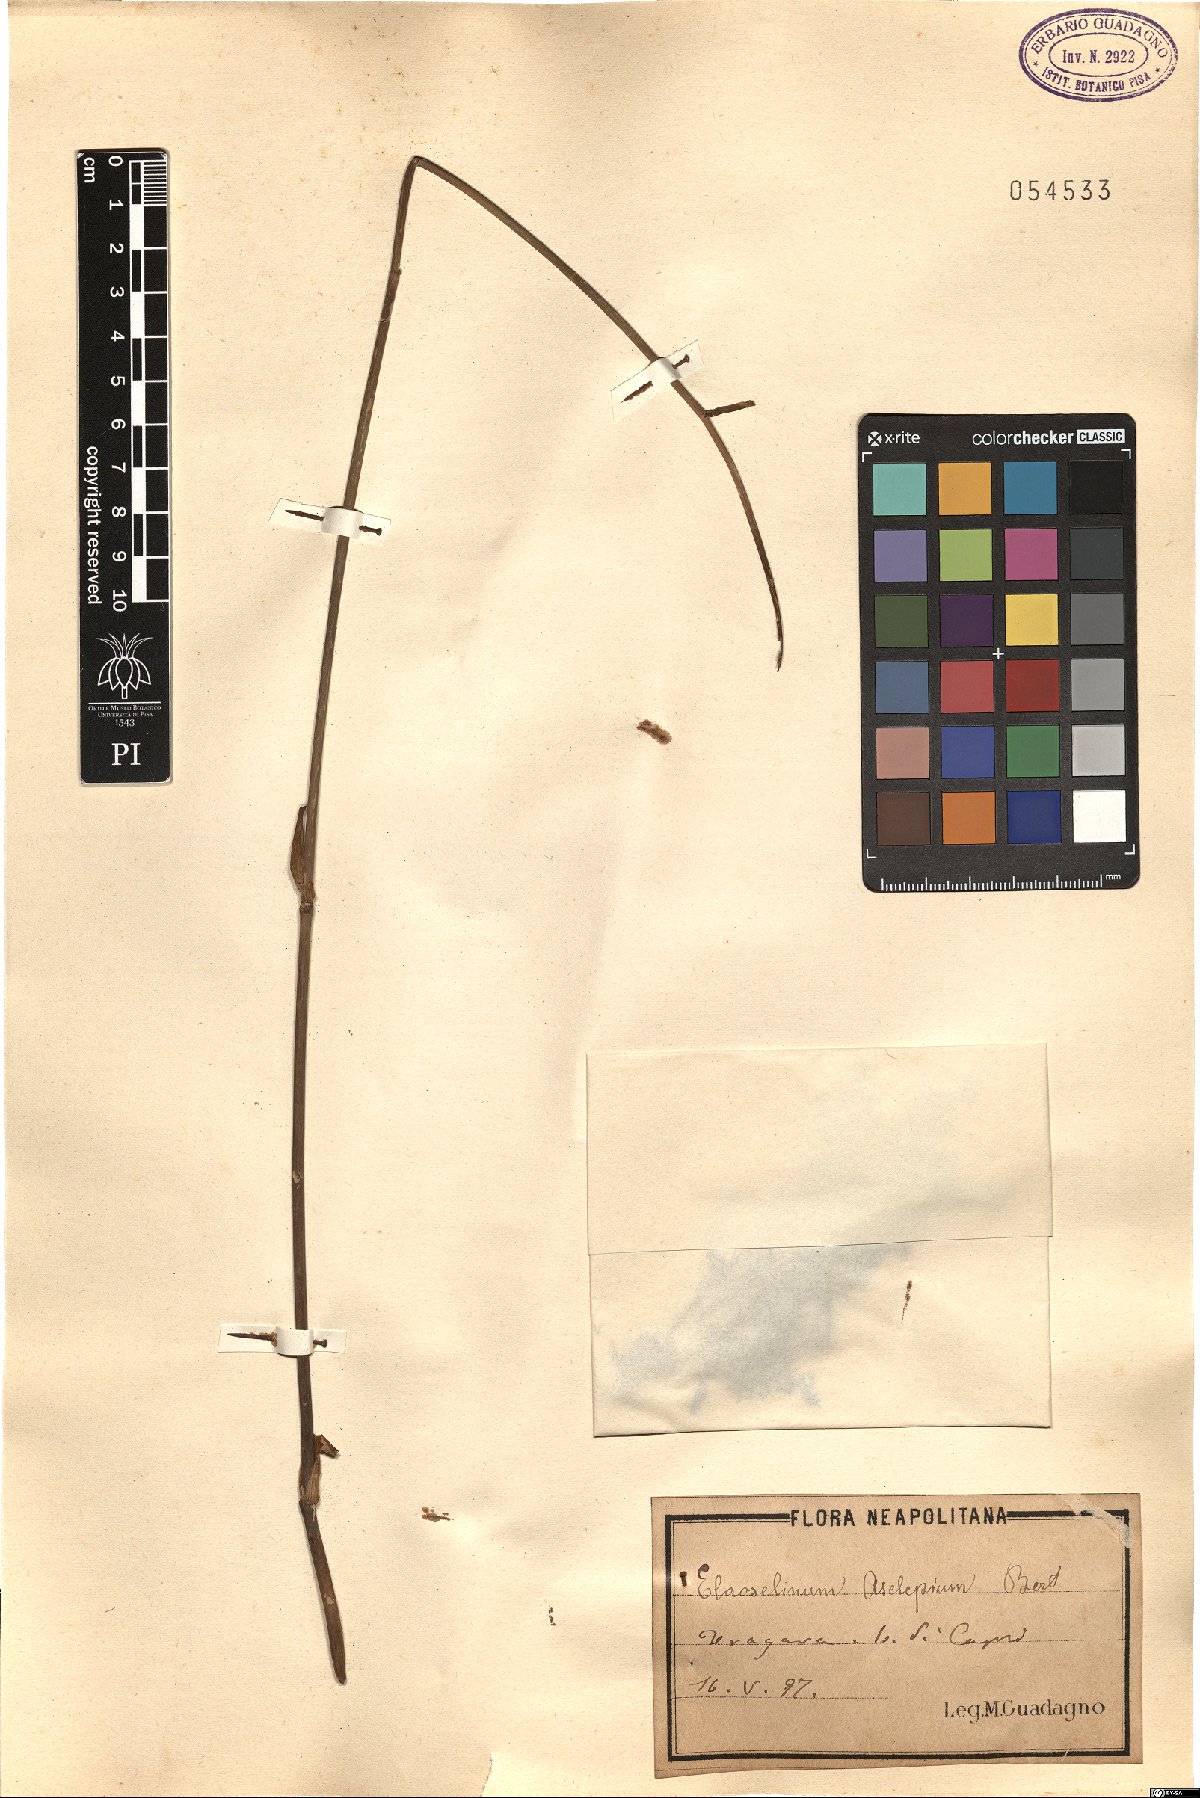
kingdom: Plantae
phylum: Tracheophyta
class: Magnoliopsida
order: Apiales
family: Apiaceae
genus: Thapsia
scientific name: Thapsia asclepium
